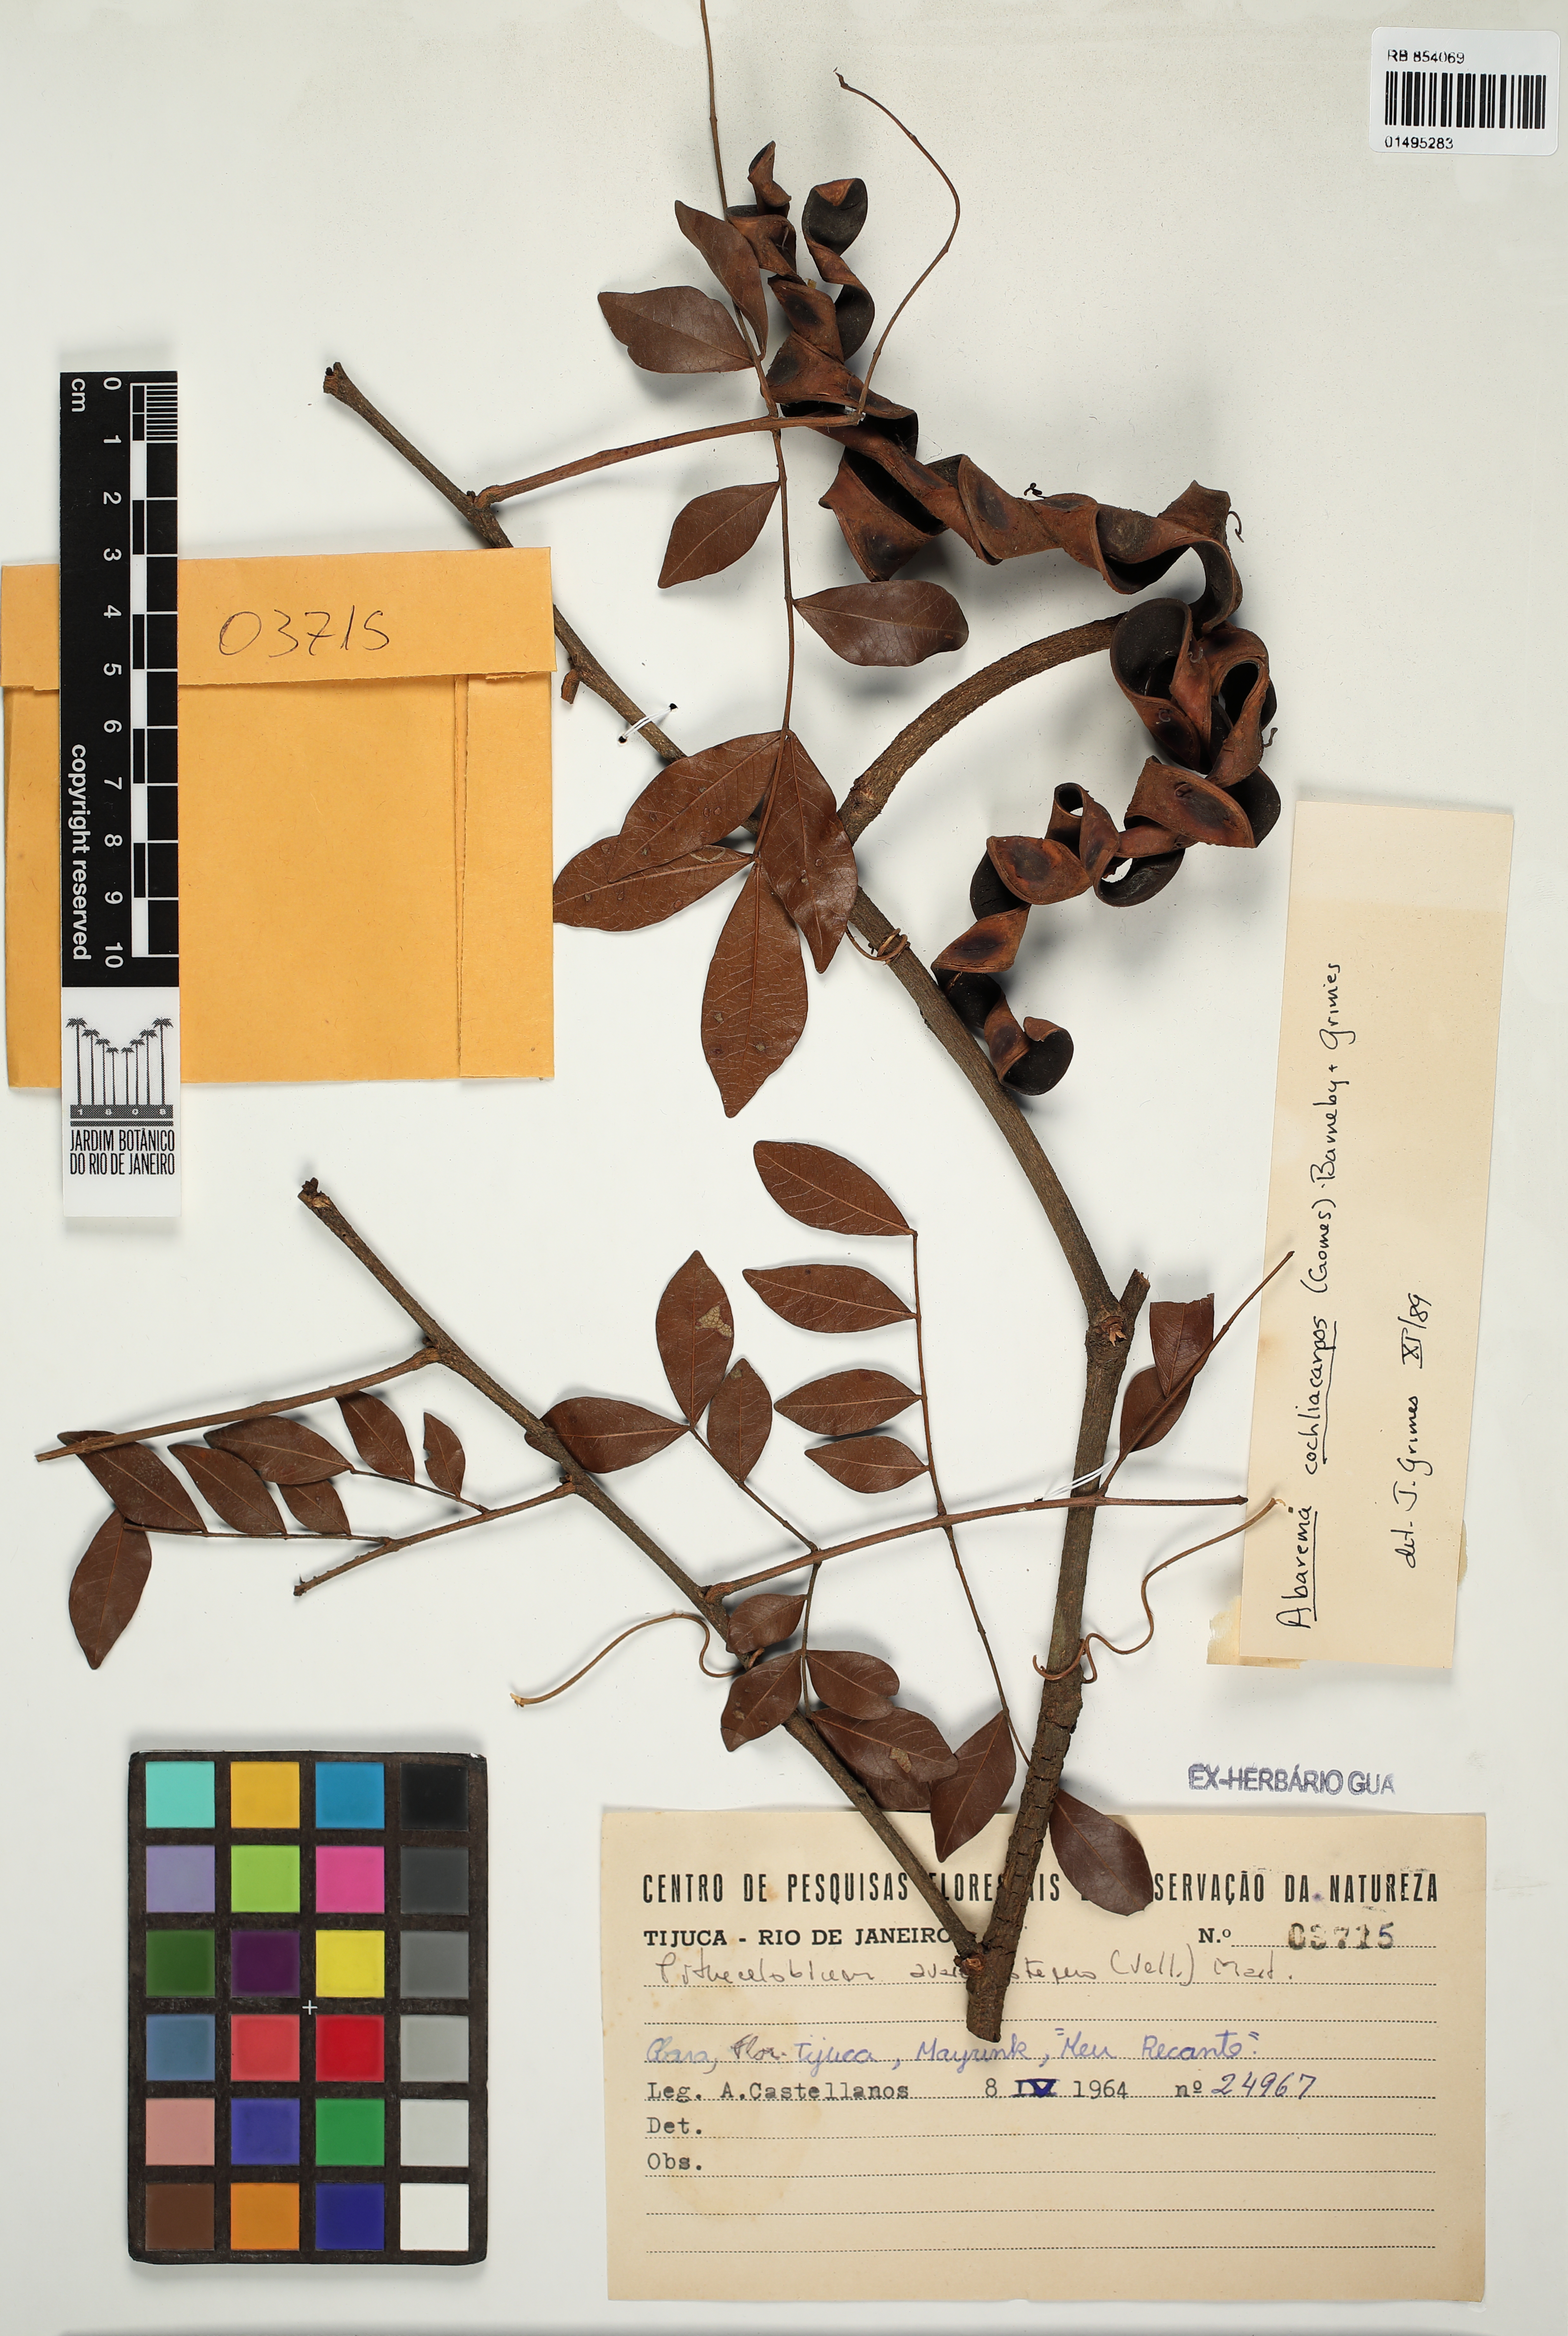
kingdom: Plantae
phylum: Tracheophyta
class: Magnoliopsida
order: Fabales
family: Fabaceae
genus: Abarema
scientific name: Abarema cochliacarpos
